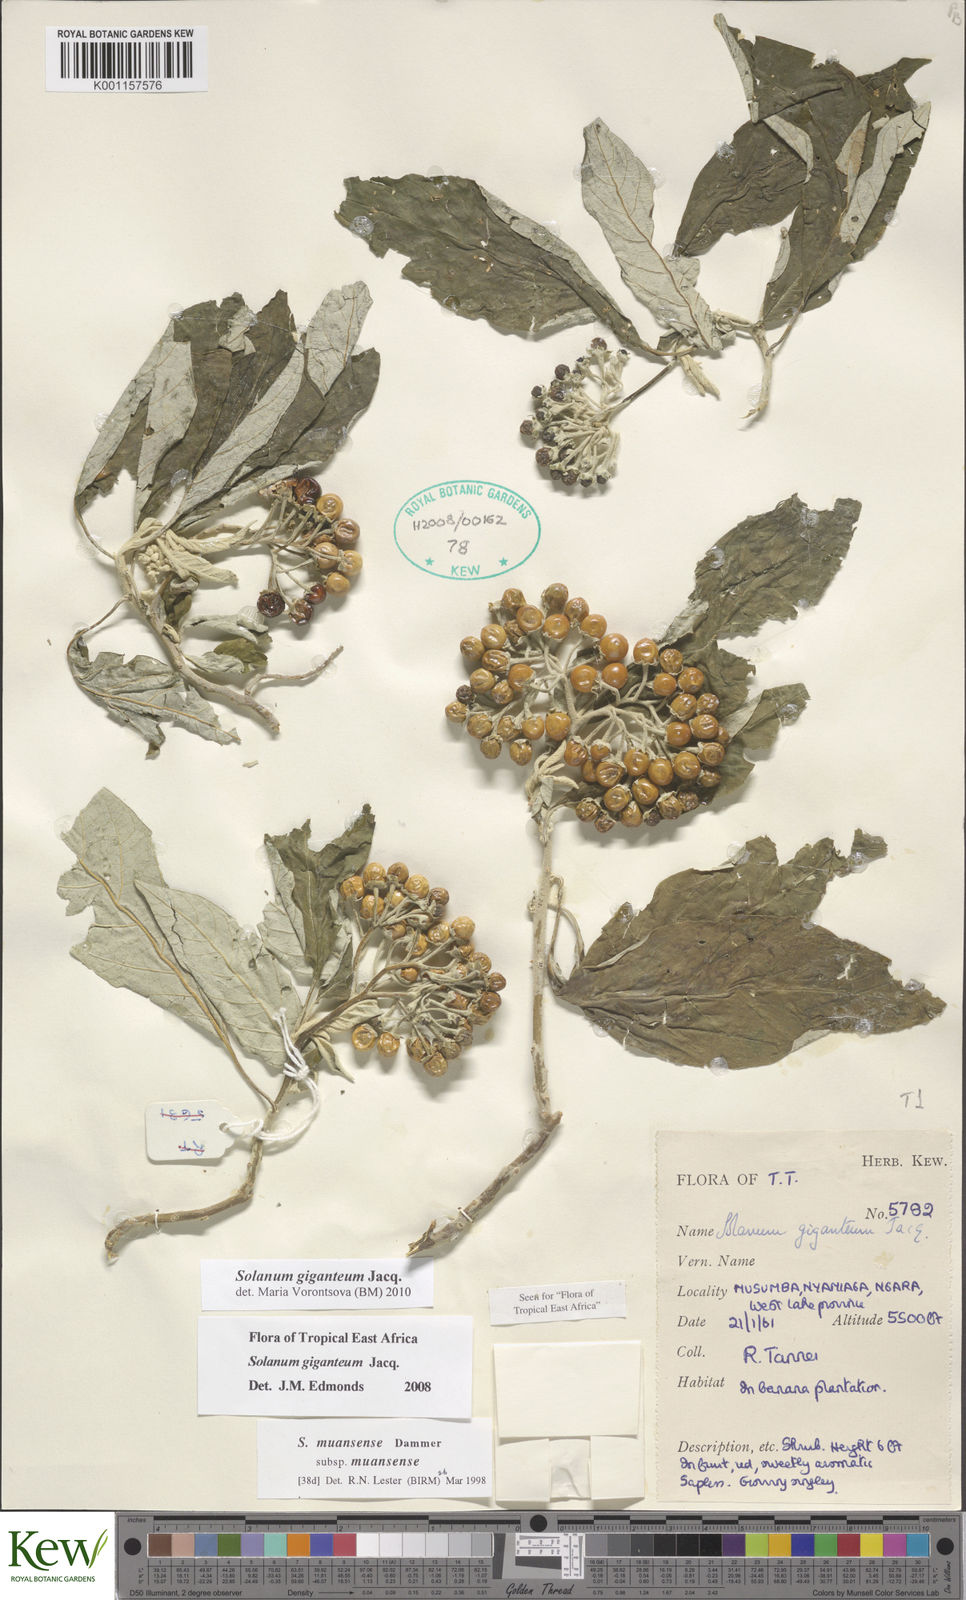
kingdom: Plantae
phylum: Tracheophyta
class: Magnoliopsida
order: Solanales
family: Solanaceae
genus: Solanum
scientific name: Solanum giganteum
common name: Healing-leaf-tree
